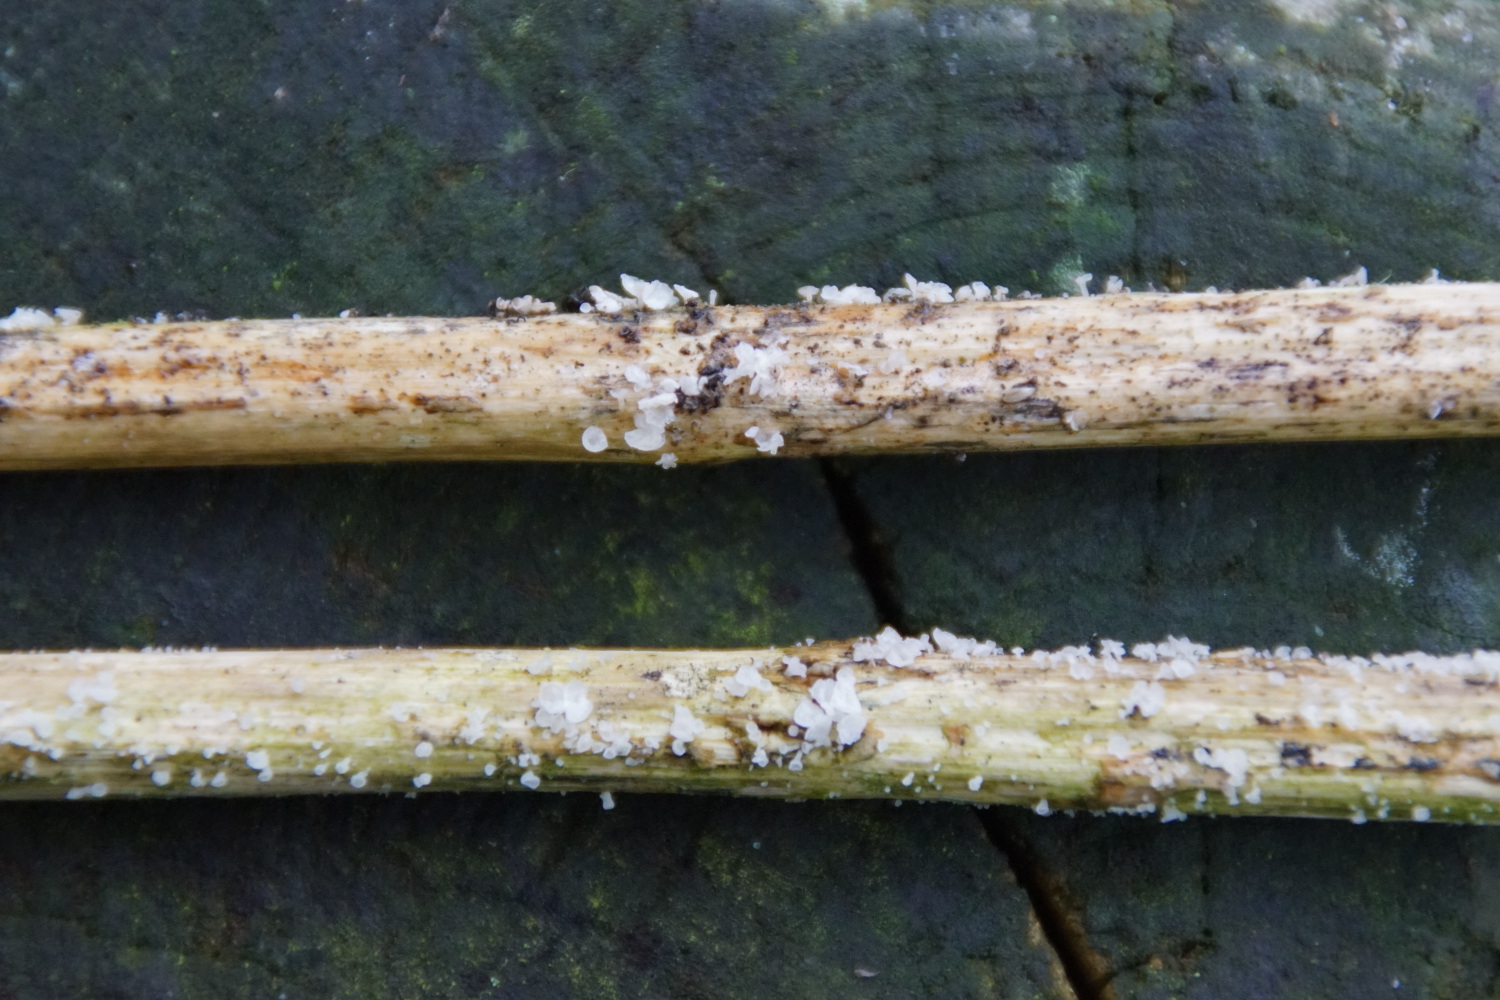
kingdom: Fungi
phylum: Basidiomycota
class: Agaricomycetes
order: Agaricales
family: Marasmiaceae
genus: Calyptella
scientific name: Calyptella capula
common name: hvidlig nældehue
